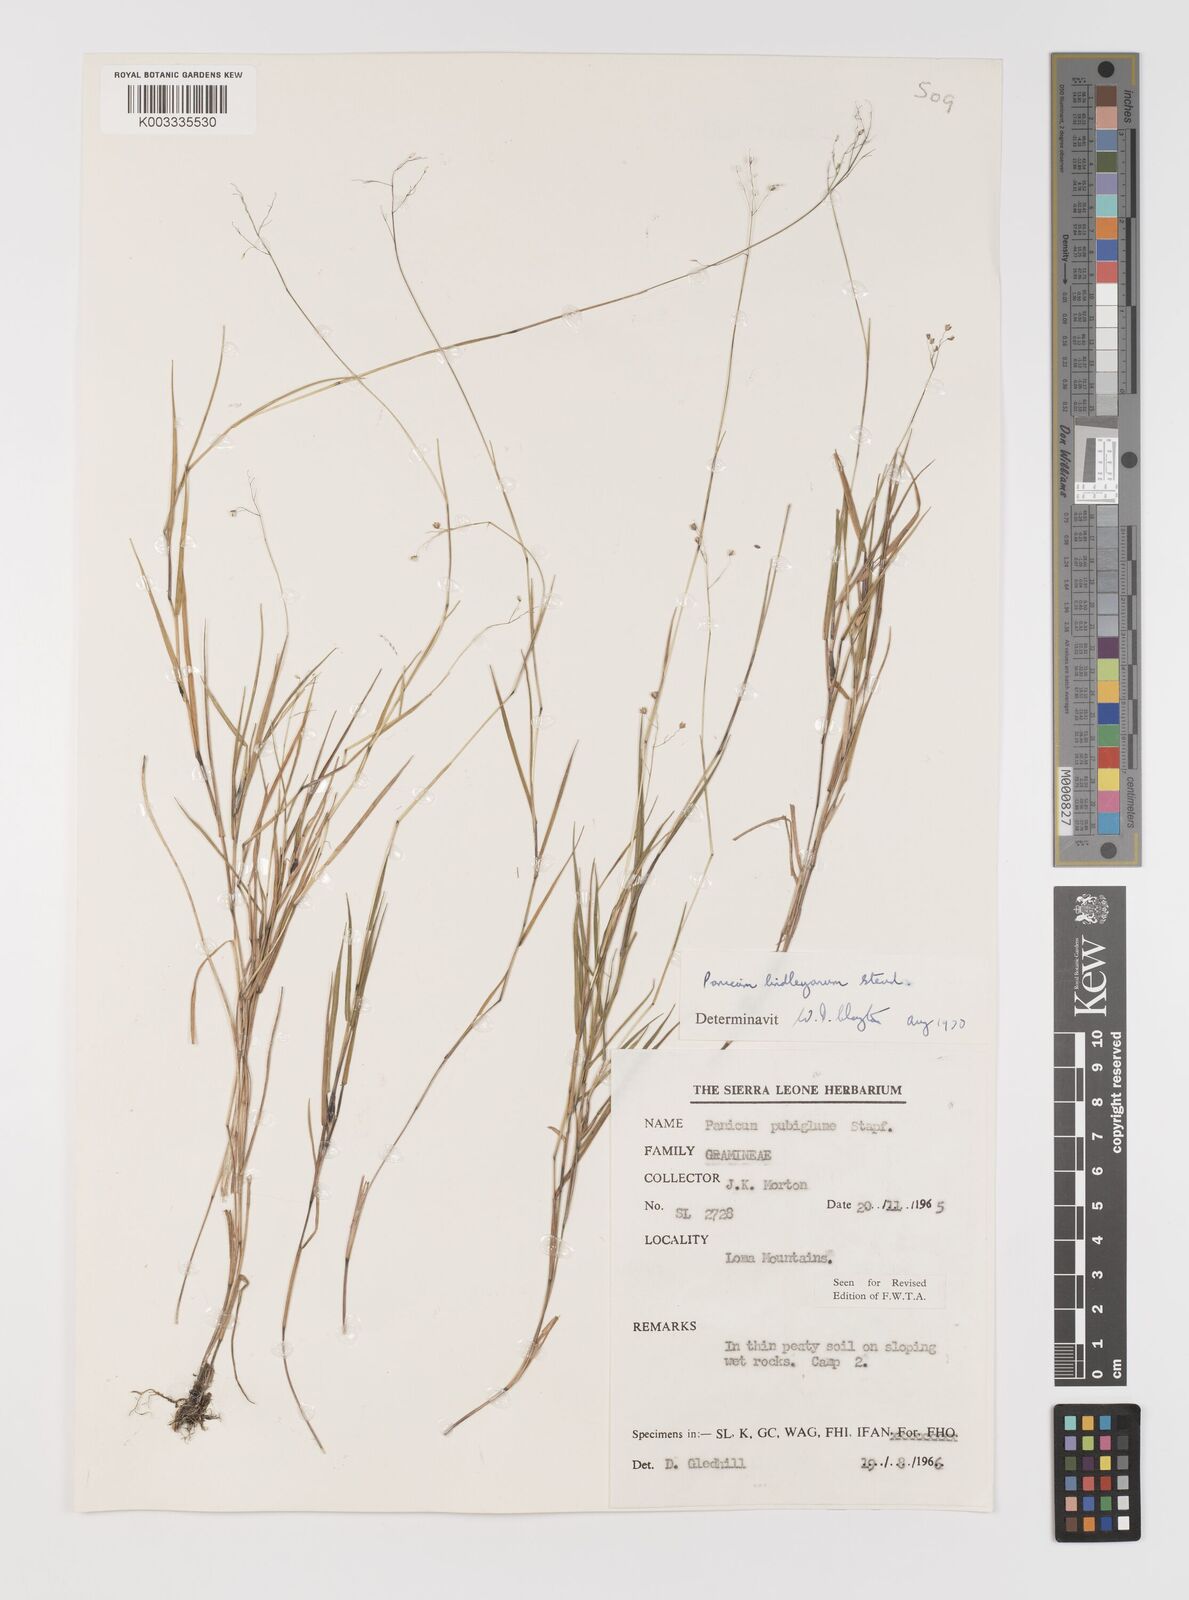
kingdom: Plantae
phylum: Tracheophyta
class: Liliopsida
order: Poales
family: Poaceae
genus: Trichanthecium
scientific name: Trichanthecium tenellum
